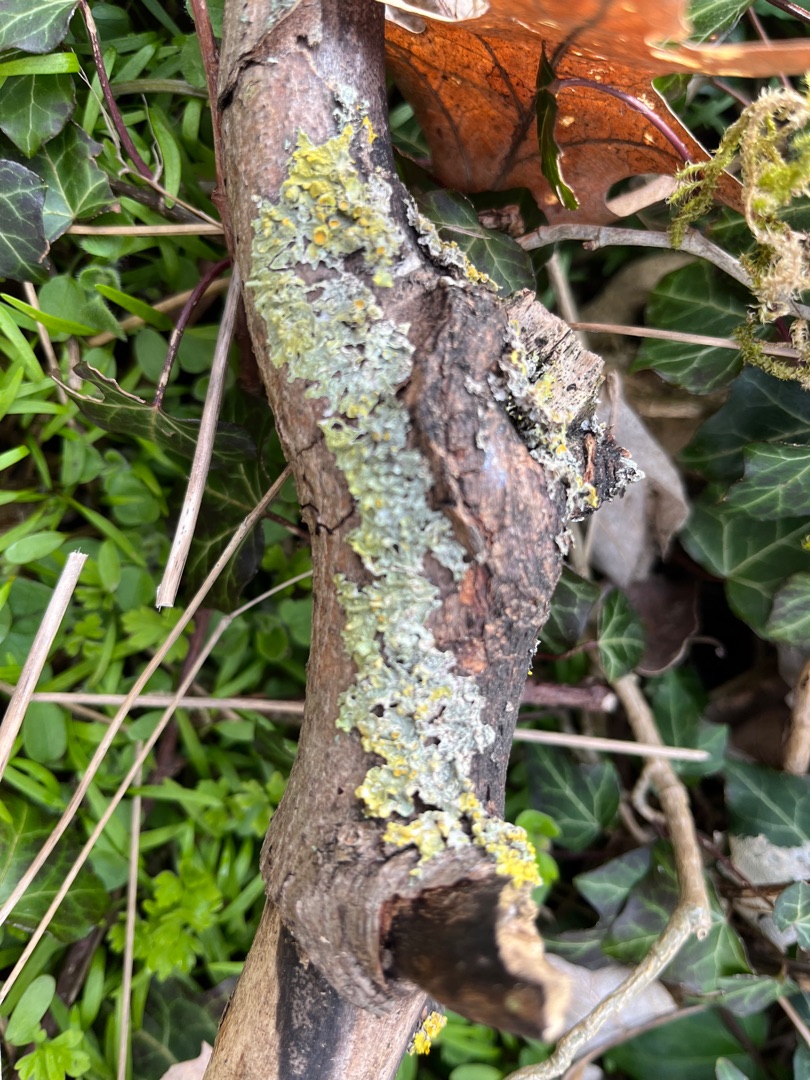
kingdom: Fungi
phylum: Ascomycota
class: Lecanoromycetes
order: Teloschistales
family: Teloschistaceae
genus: Xanthoria
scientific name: Xanthoria parietina
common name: Almindelig væggelav
